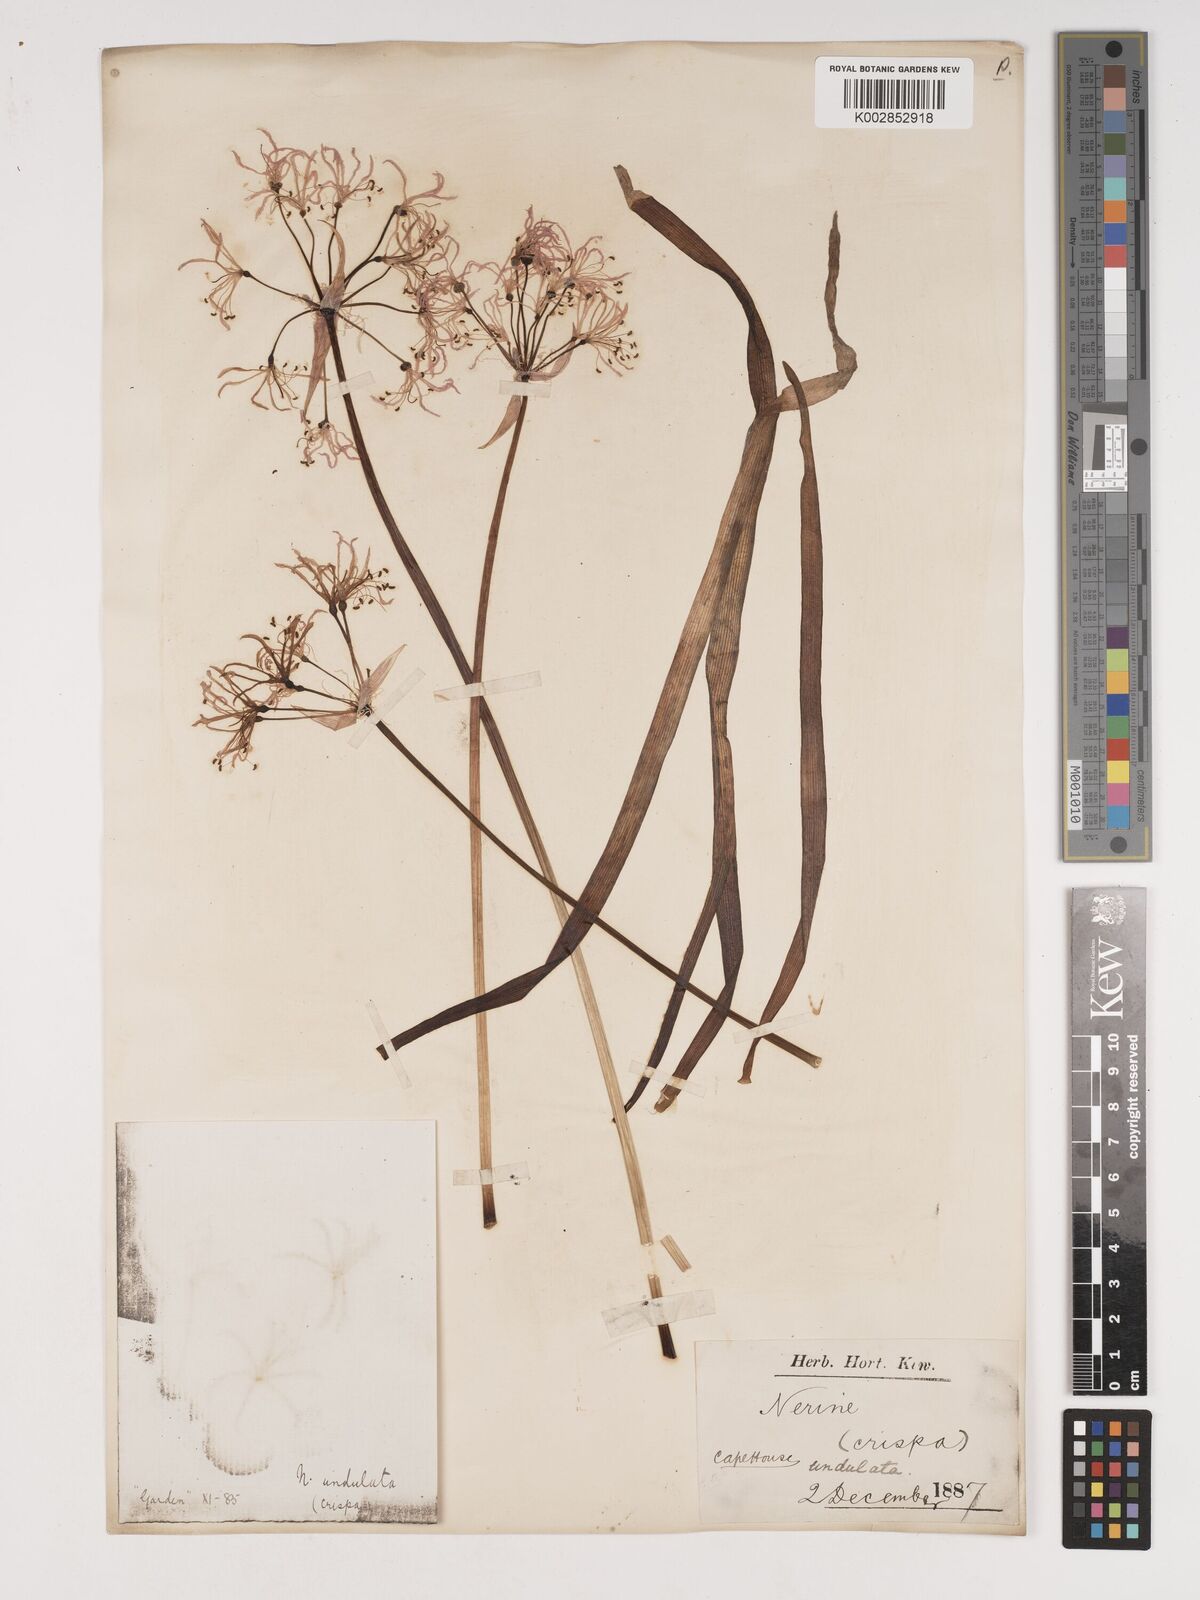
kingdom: Plantae
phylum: Tracheophyta
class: Liliopsida
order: Asparagales
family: Amaryllidaceae
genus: Nerine
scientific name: Nerine undulata
